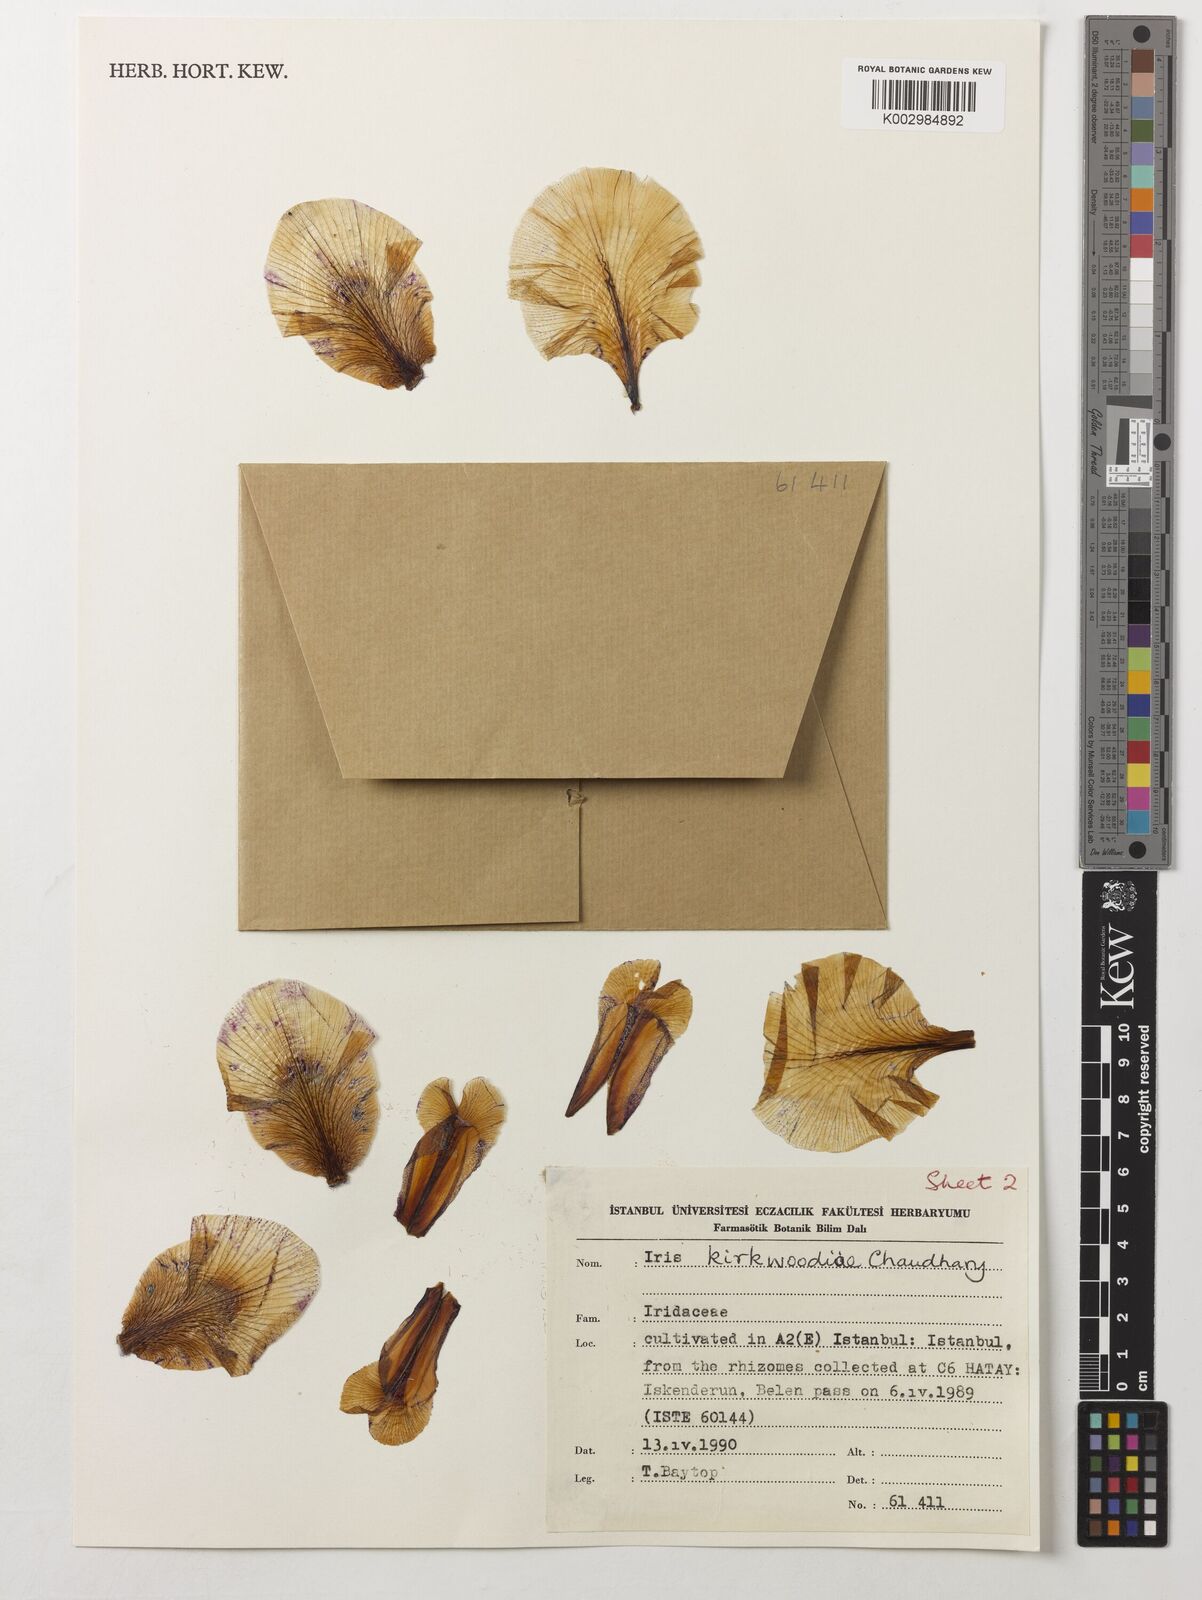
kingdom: Plantae
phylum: Tracheophyta
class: Liliopsida
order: Asparagales
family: Iridaceae
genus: Iris
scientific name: Iris kirkwoodiae
